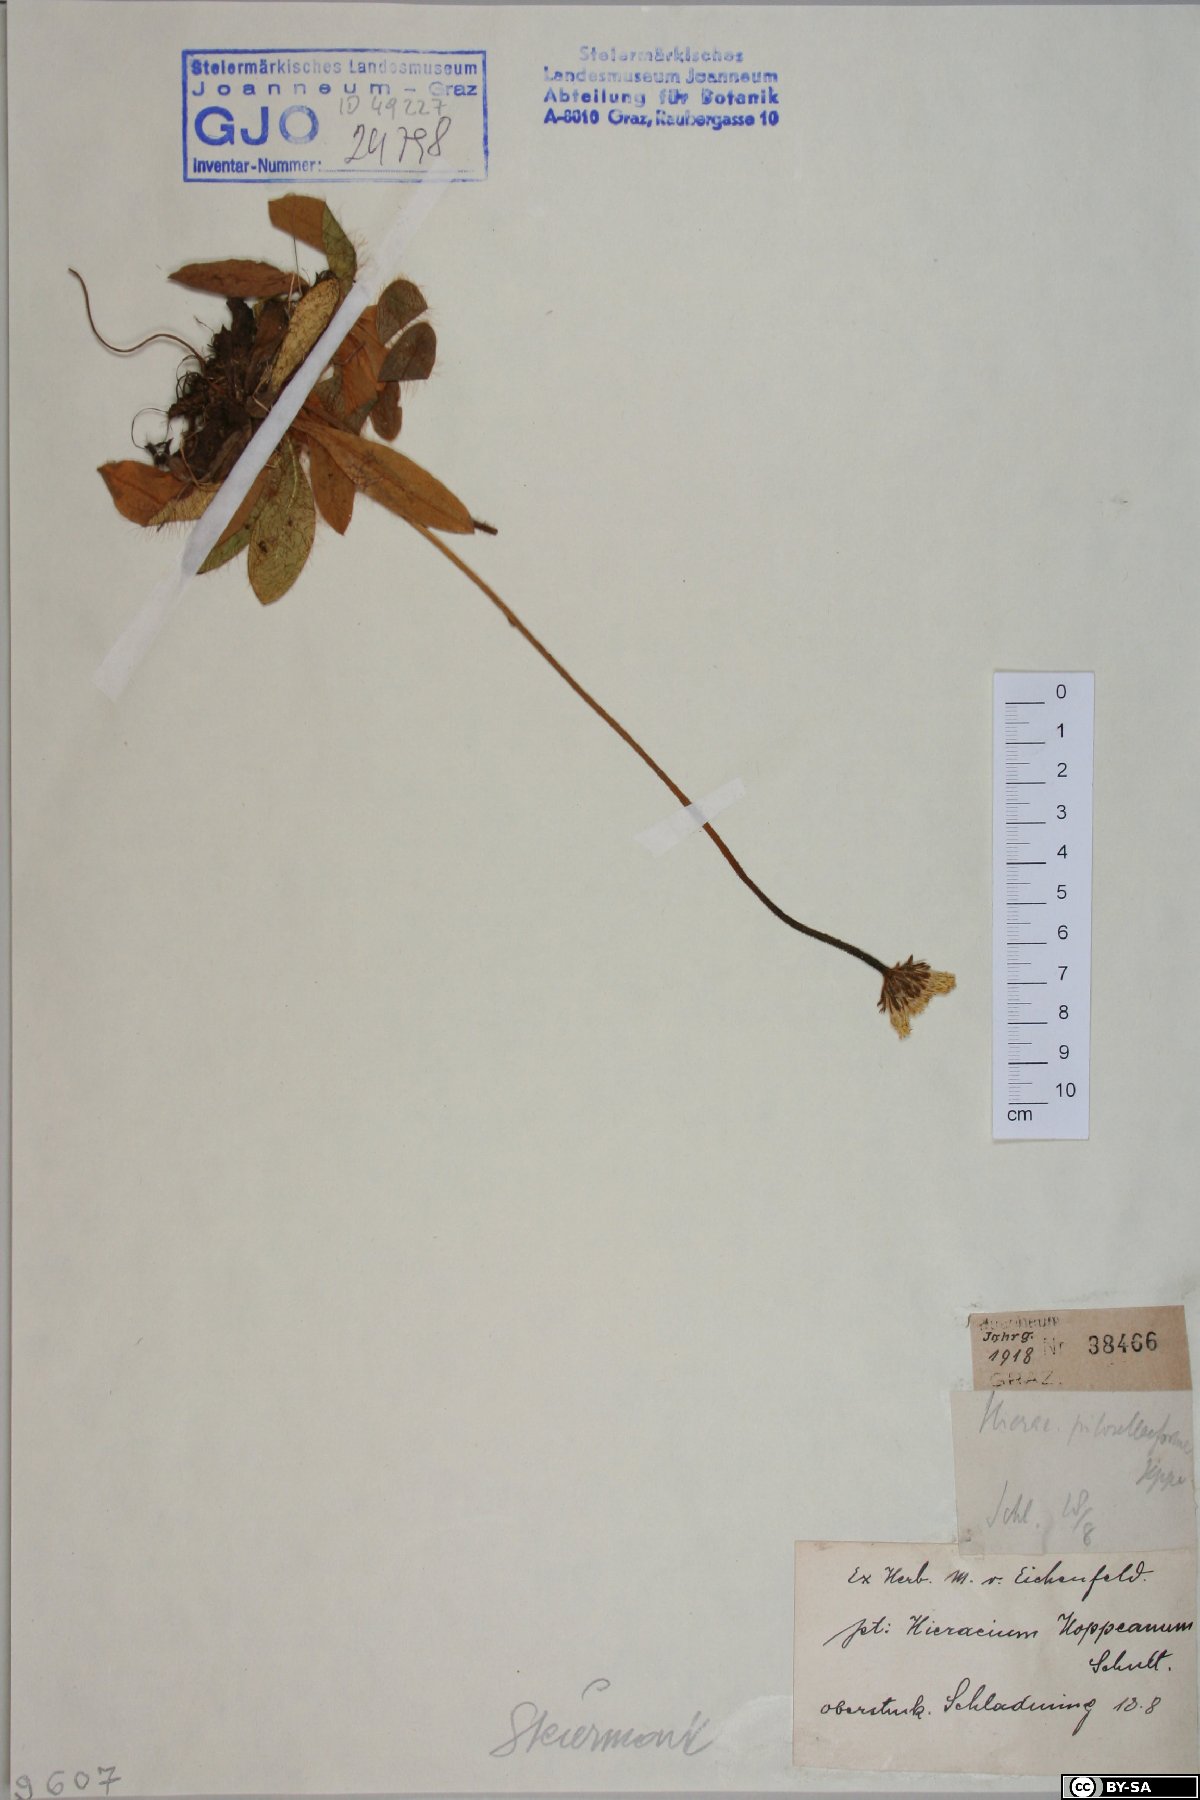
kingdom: Plantae
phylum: Tracheophyta
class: Magnoliopsida
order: Asterales
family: Asteraceae
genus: Pilosella
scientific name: Pilosella hoppeana
